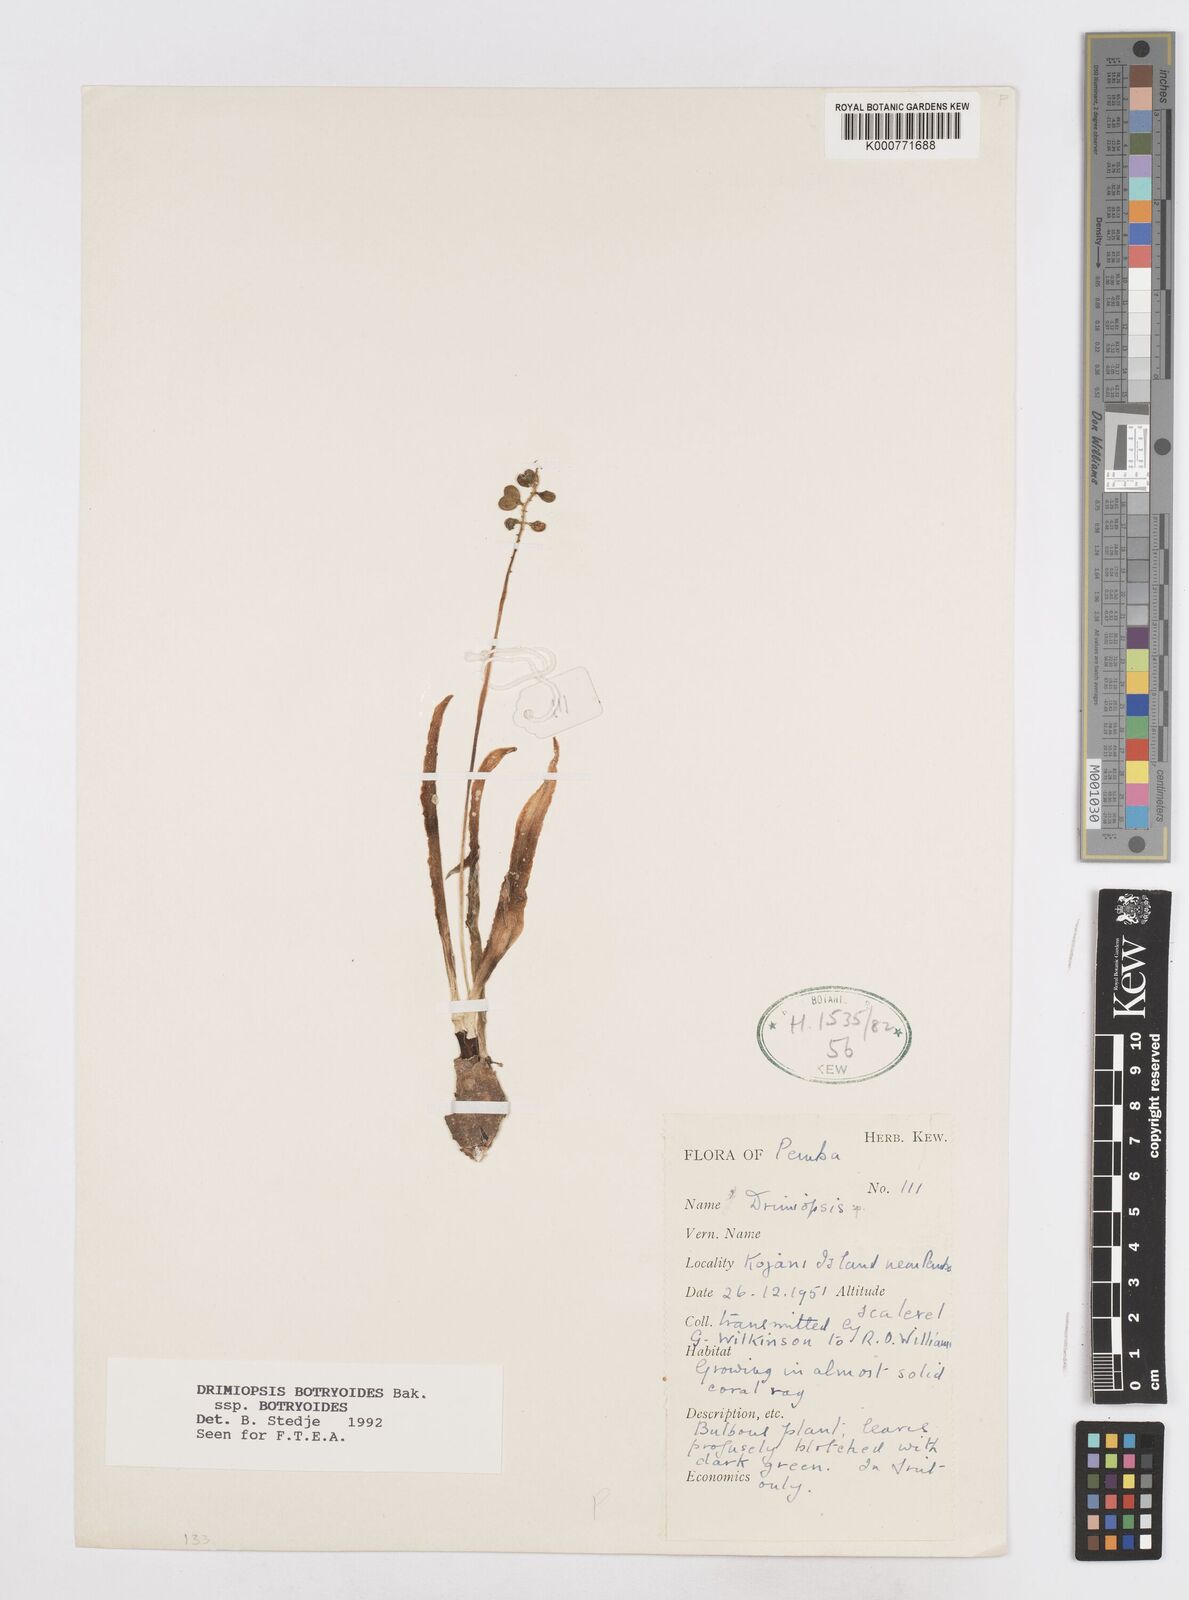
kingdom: Plantae
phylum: Tracheophyta
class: Liliopsida
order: Asparagales
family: Asparagaceae
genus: Drimiopsis
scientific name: Drimiopsis botryoides
